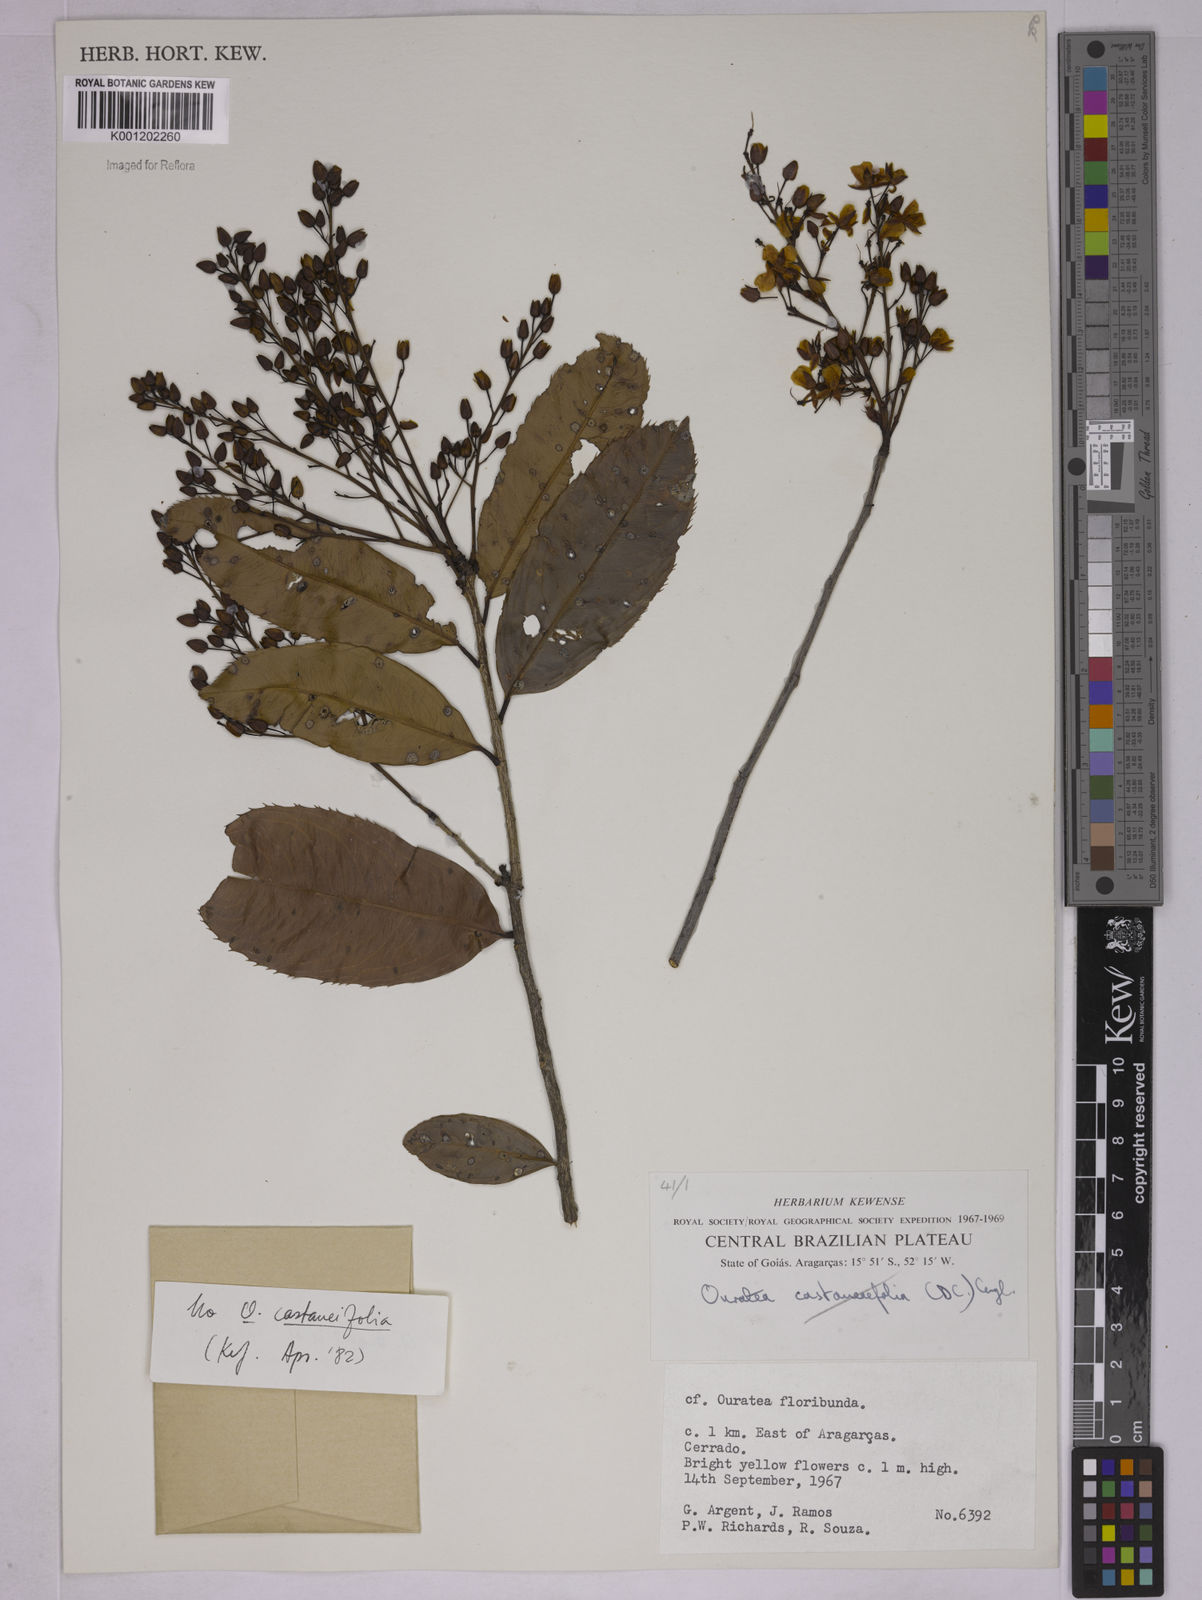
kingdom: Plantae
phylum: Tracheophyta
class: Magnoliopsida
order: Malpighiales
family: Ochnaceae
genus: Ouratea
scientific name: Ouratea
